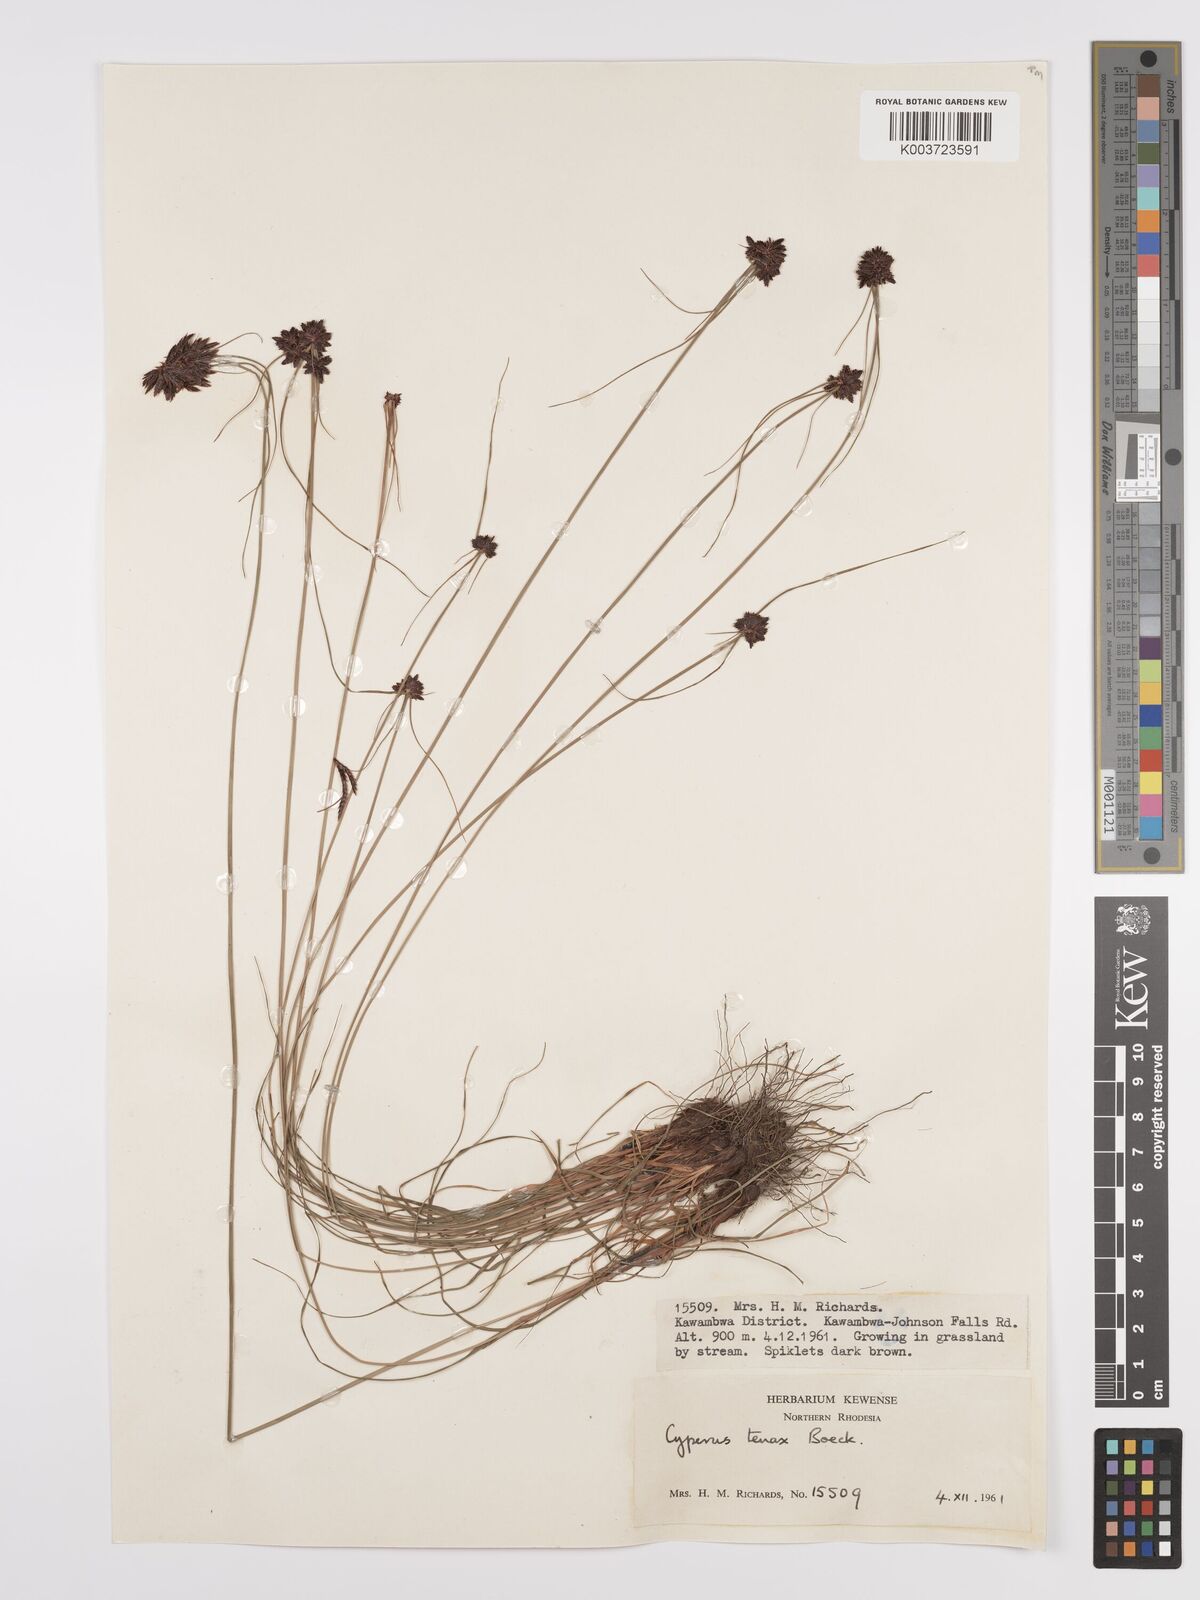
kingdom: Plantae
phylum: Tracheophyta
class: Liliopsida
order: Poales
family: Cyperaceae
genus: Cyperus
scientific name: Cyperus tenax
